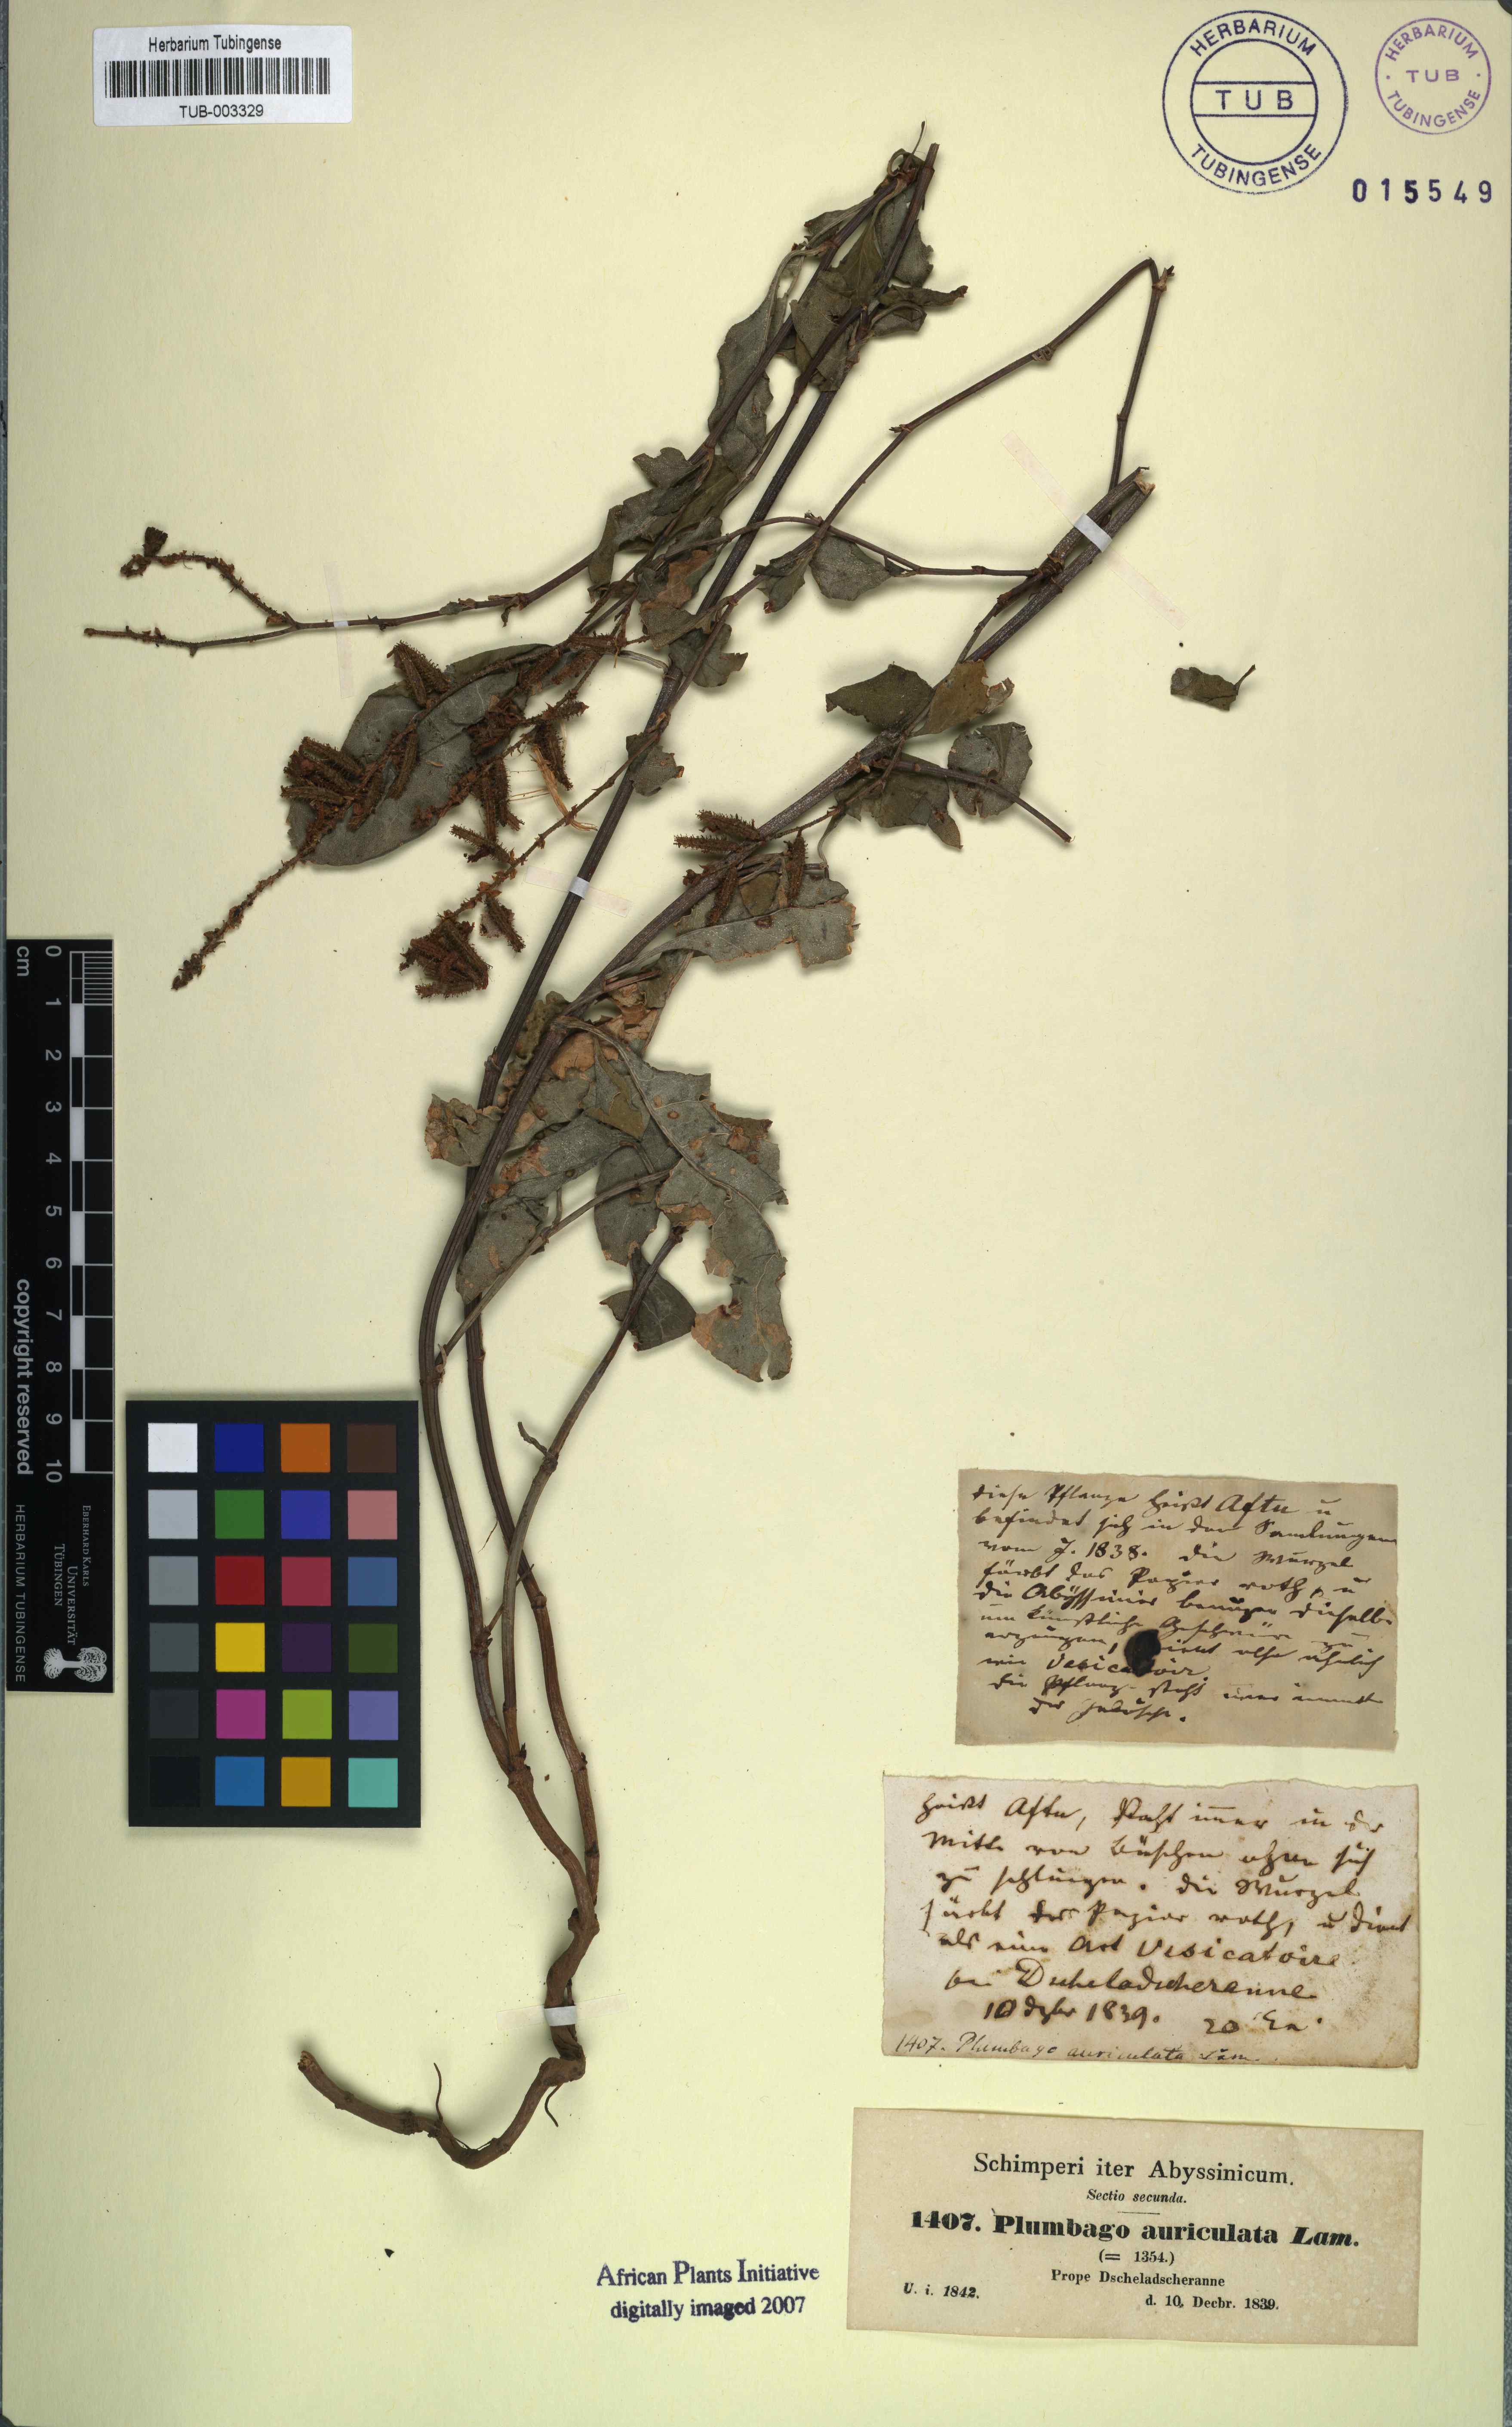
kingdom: Plantae
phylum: Tracheophyta
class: Magnoliopsida
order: Caryophyllales
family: Plumbaginaceae
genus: Plumbago
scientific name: Plumbago auriculata
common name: Cape leadwort
